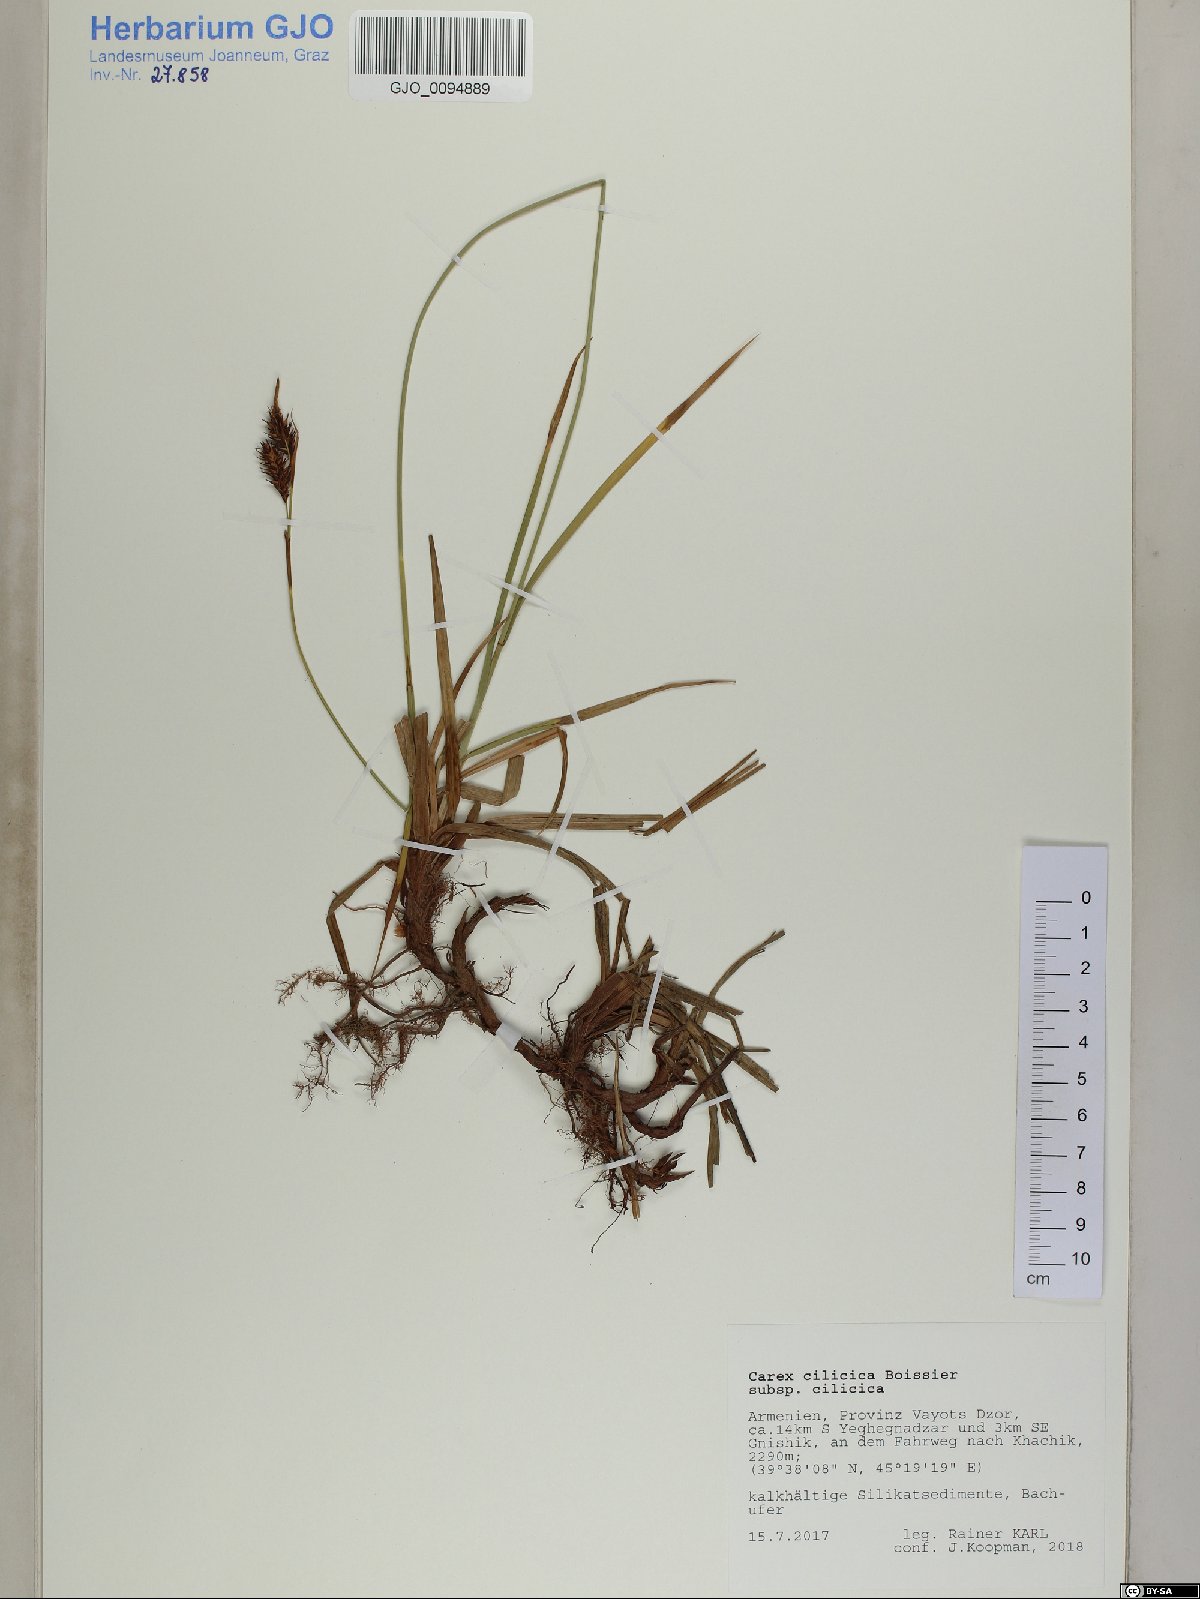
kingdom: Plantae
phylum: Tracheophyta
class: Liliopsida
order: Poales
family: Cyperaceae
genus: Carex
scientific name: Carex cilicica
